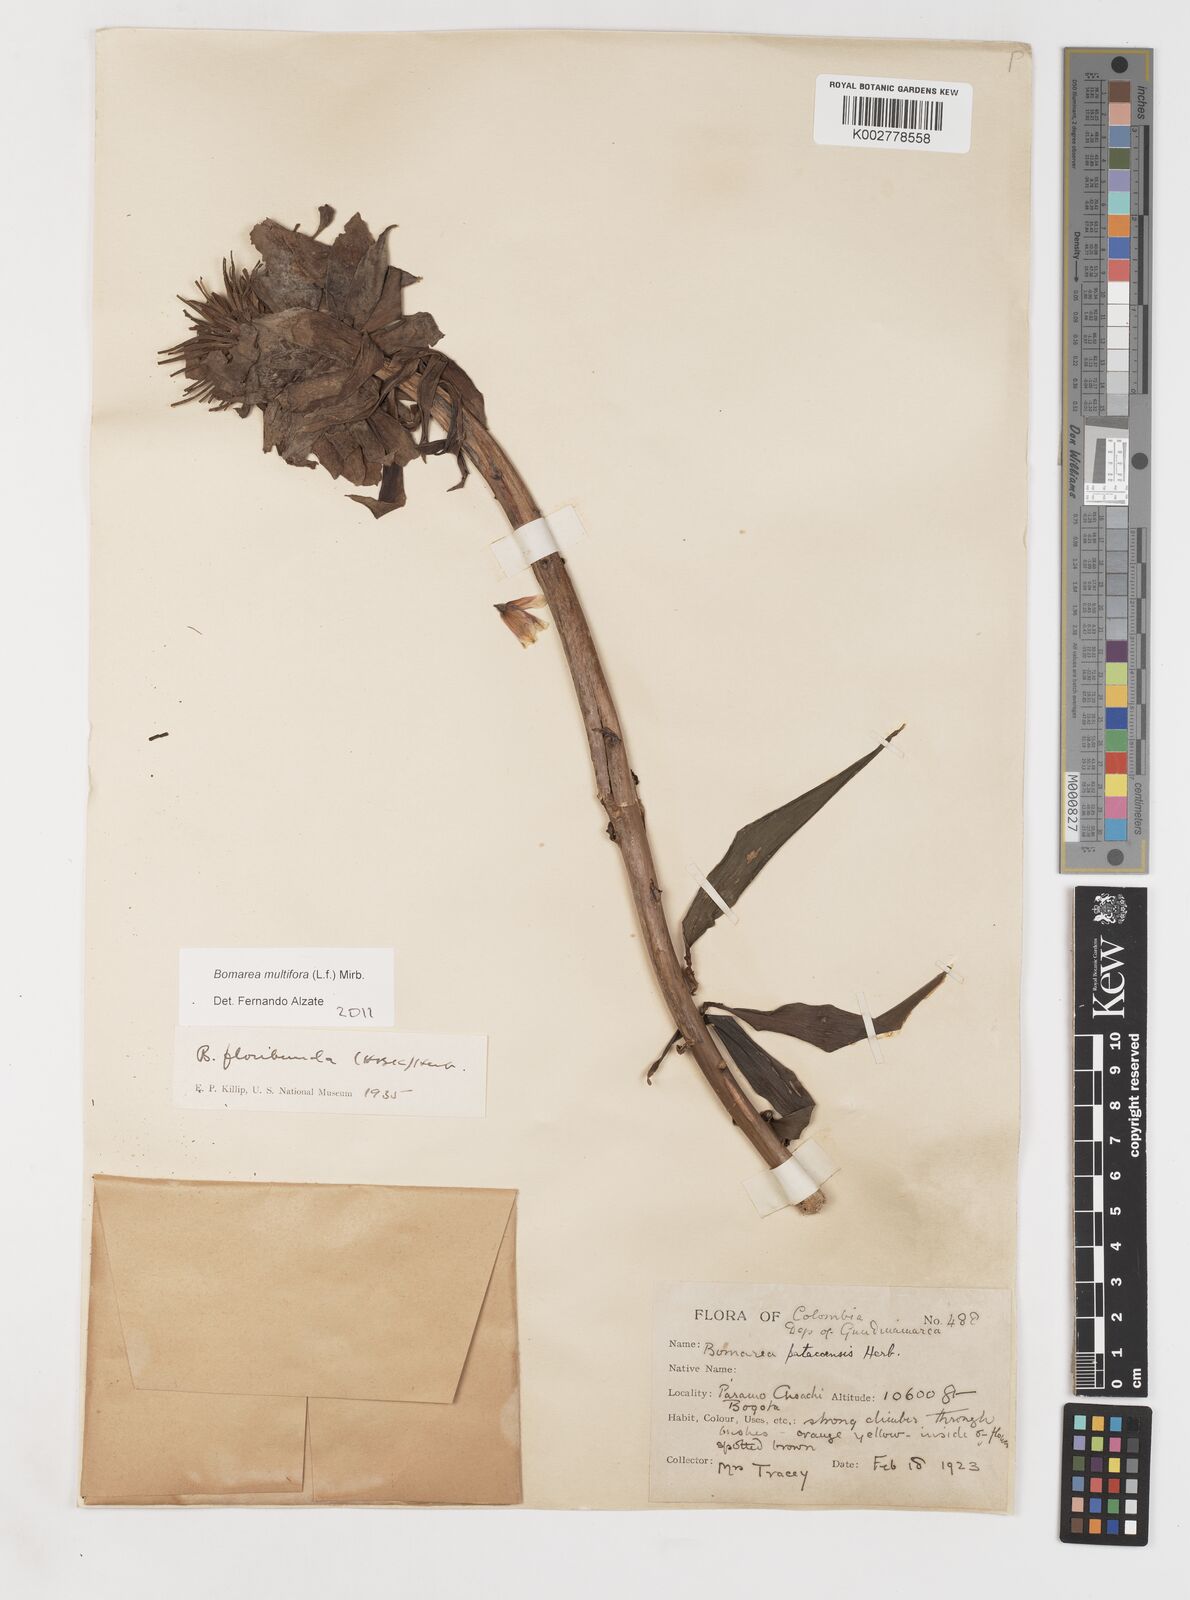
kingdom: Plantae
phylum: Tracheophyta
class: Liliopsida
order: Liliales
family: Alstroemeriaceae
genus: Bomarea
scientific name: Bomarea multiflora
